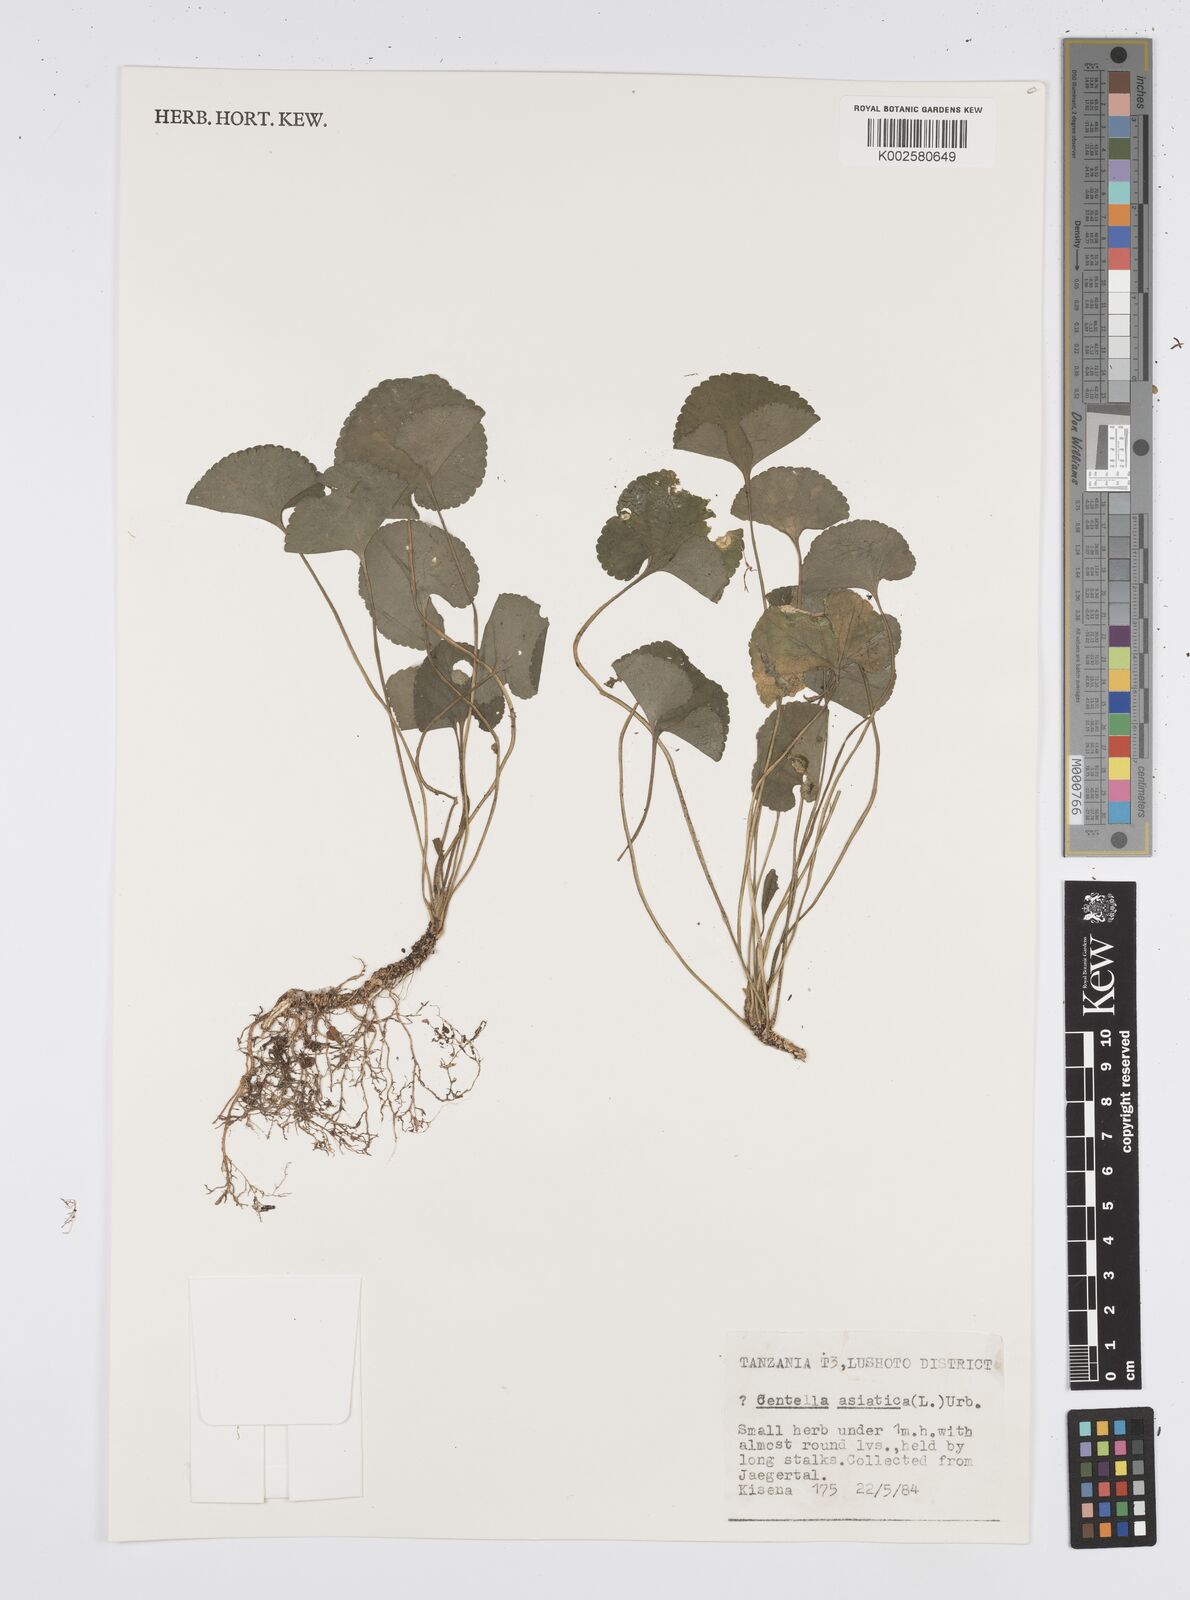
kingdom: Plantae
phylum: Tracheophyta
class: Magnoliopsida
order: Apiales
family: Apiaceae
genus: Centella
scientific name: Centella asiatica
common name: Spadeleaf
